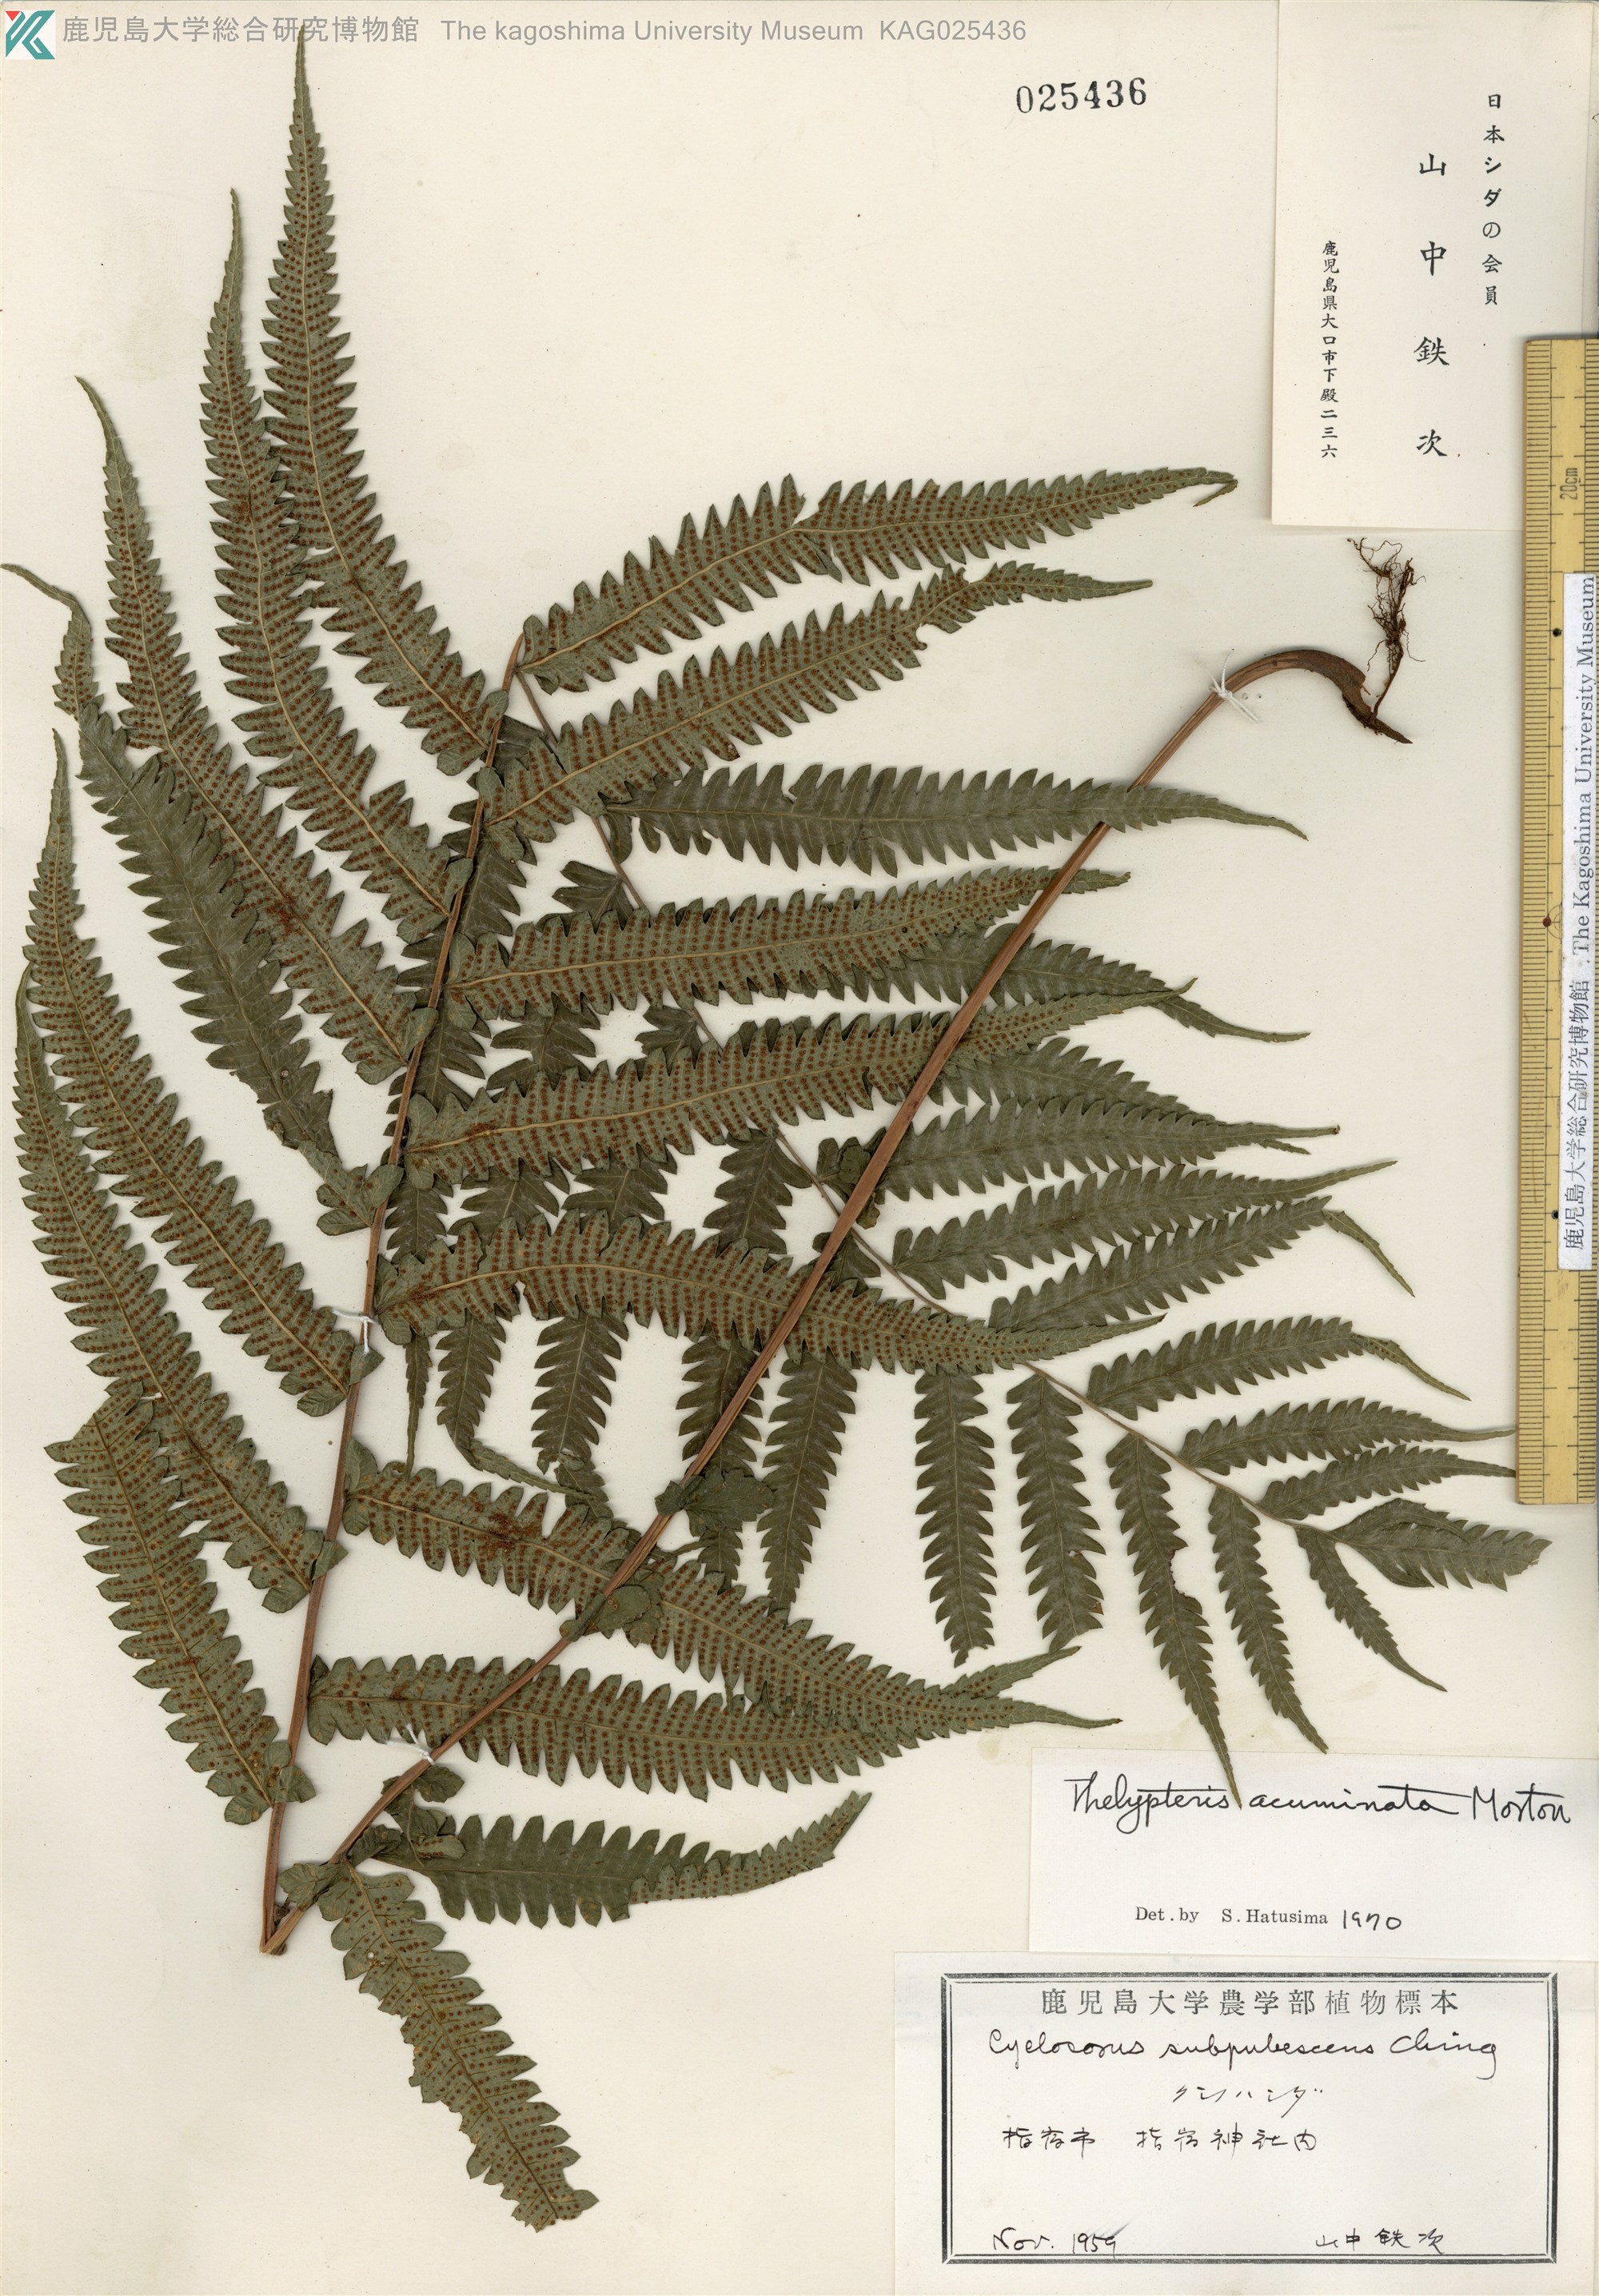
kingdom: Plantae
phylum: Tracheophyta
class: Polypodiopsida
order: Polypodiales
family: Thelypteridaceae
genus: Christella
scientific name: Christella acuminata
